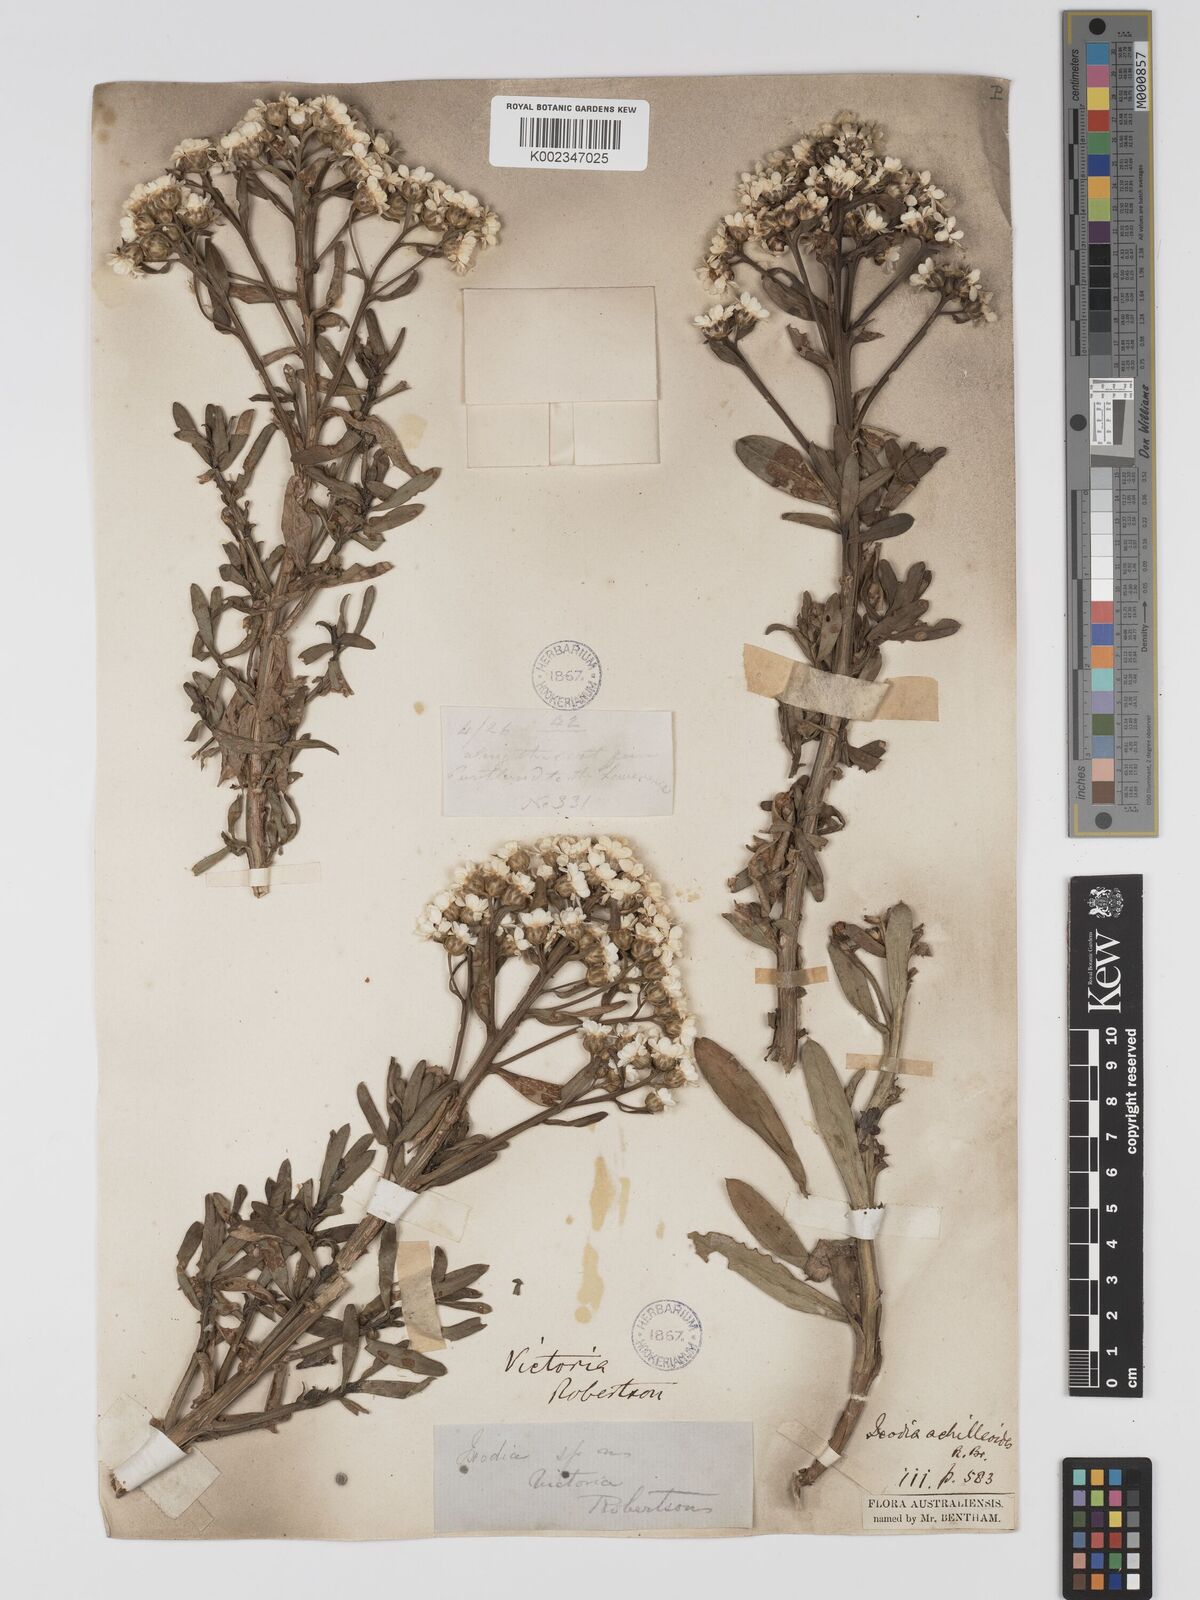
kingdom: Plantae
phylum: Tracheophyta
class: Magnoliopsida
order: Asterales
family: Asteraceae
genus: Ixodia
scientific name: Ixodia achilleoides
